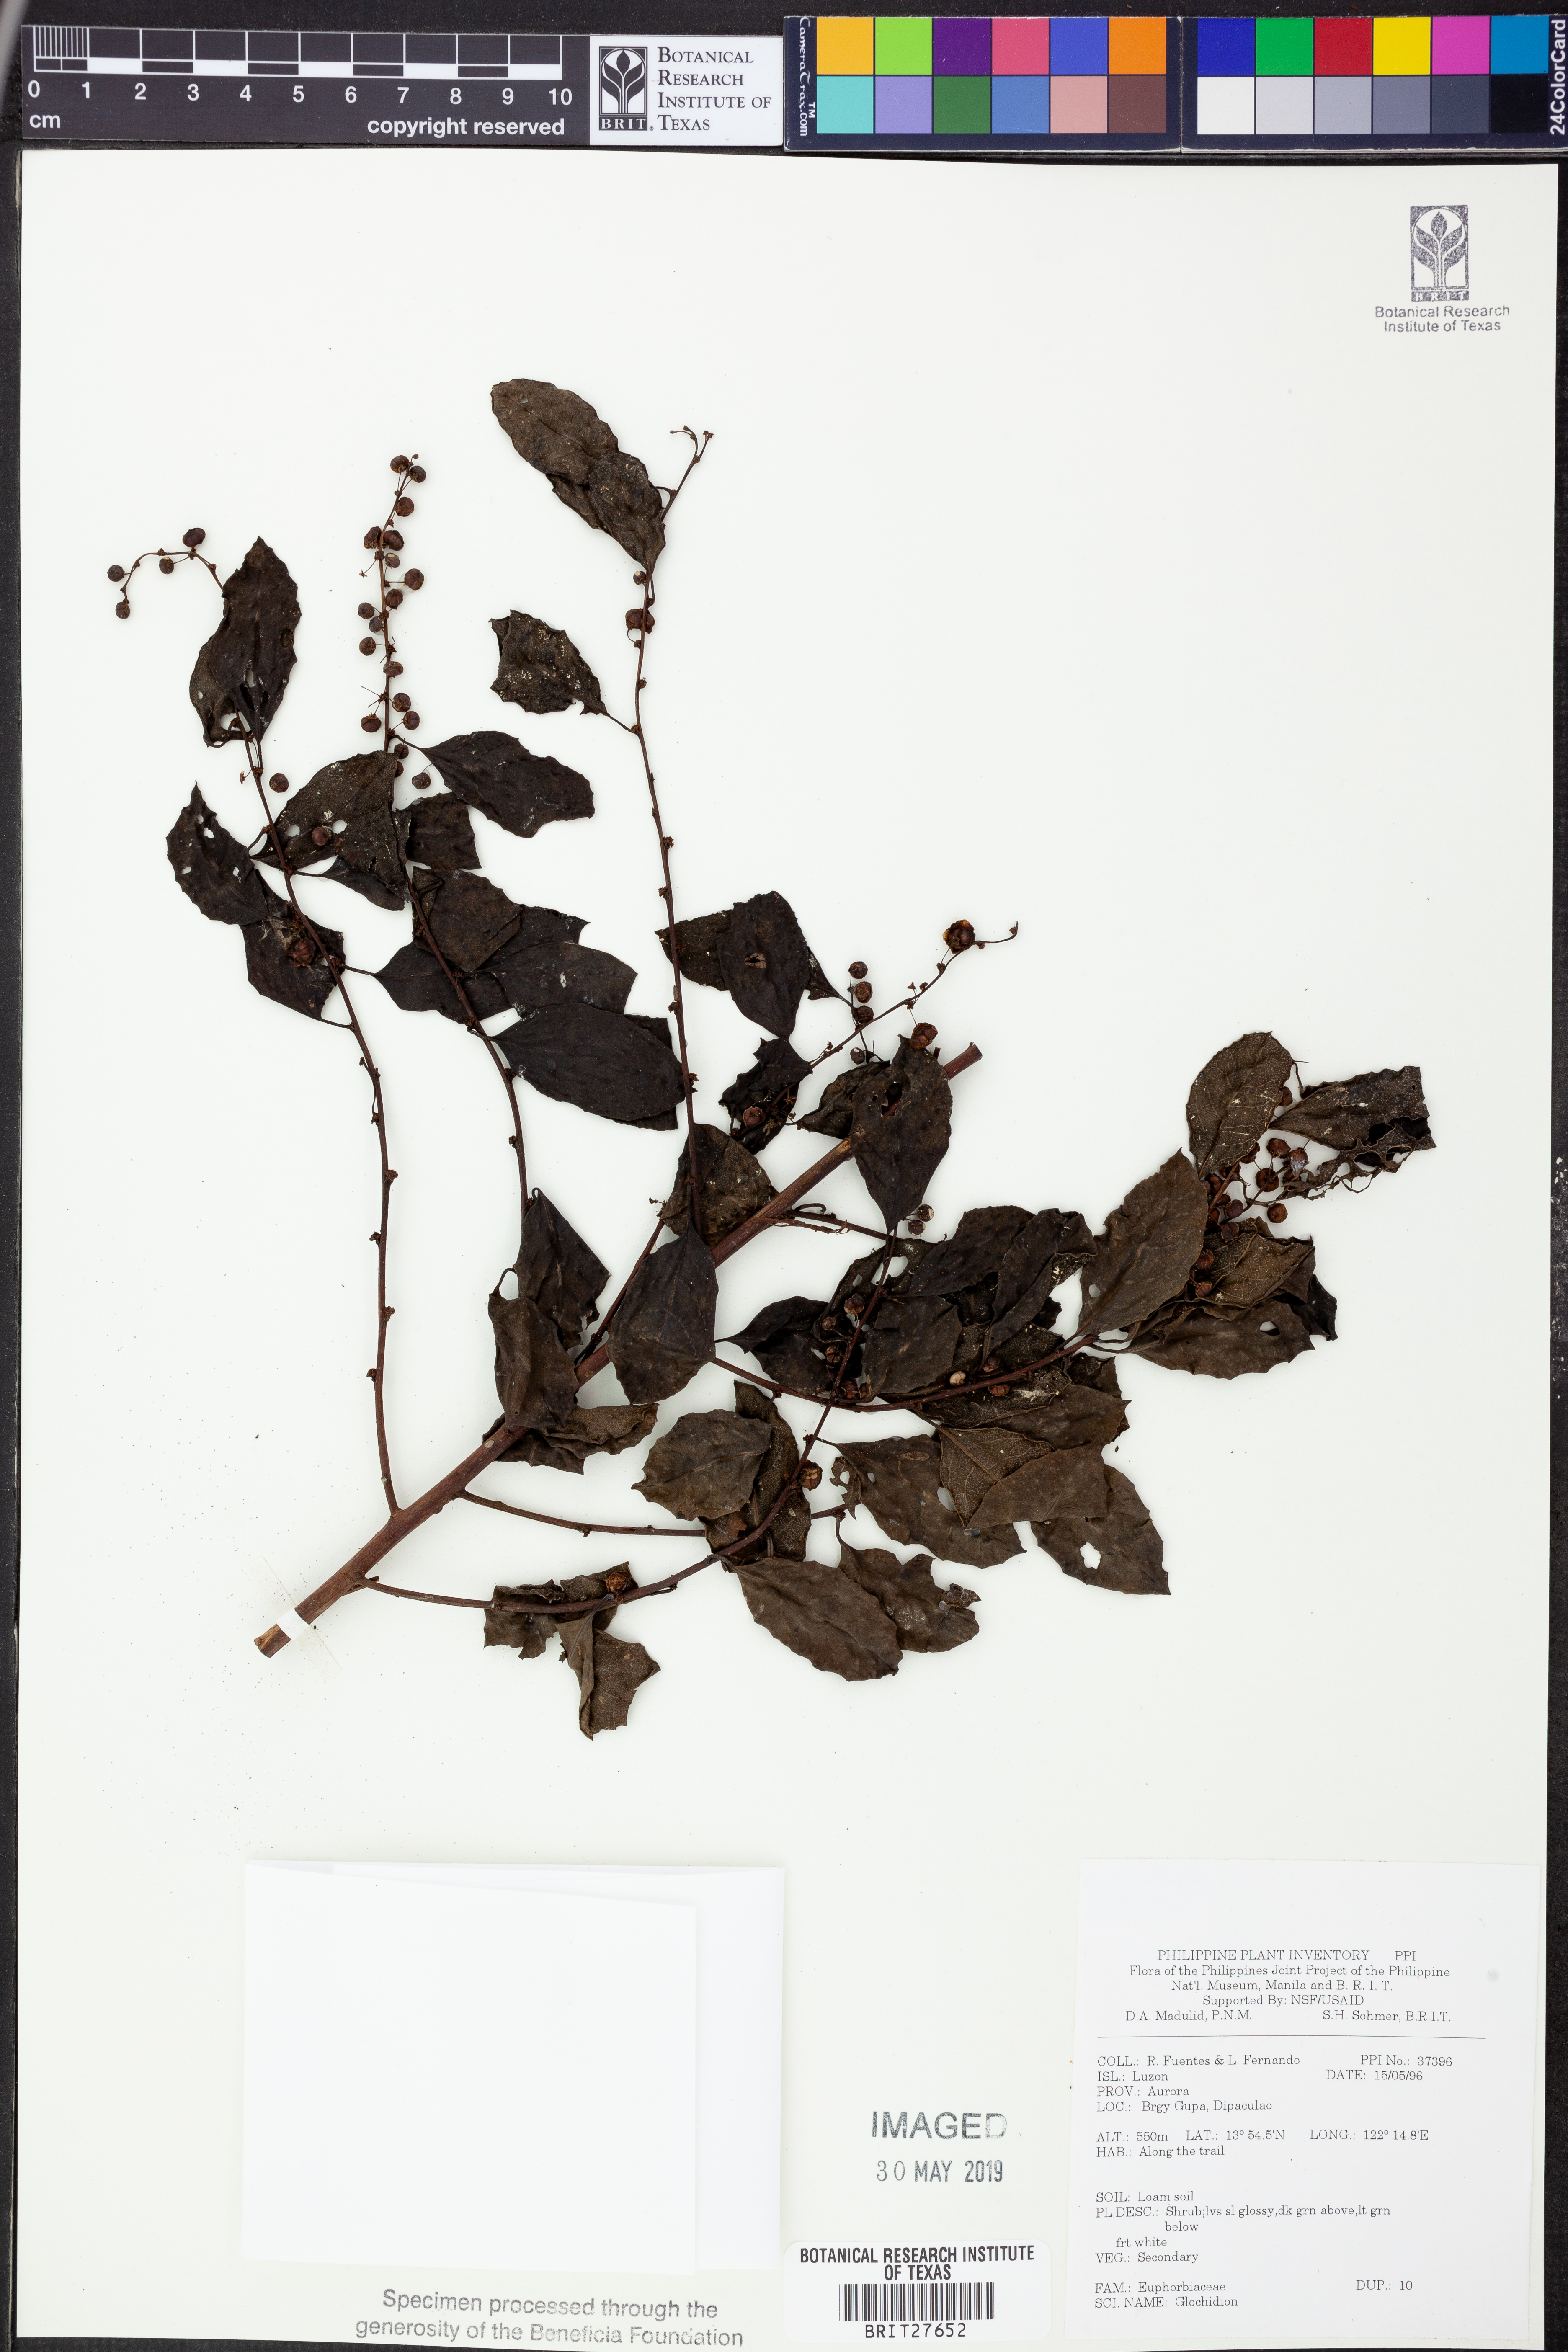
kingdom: Plantae
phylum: Tracheophyta
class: Magnoliopsida
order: Malpighiales
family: Phyllanthaceae
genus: Glochidion
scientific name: Glochidion
